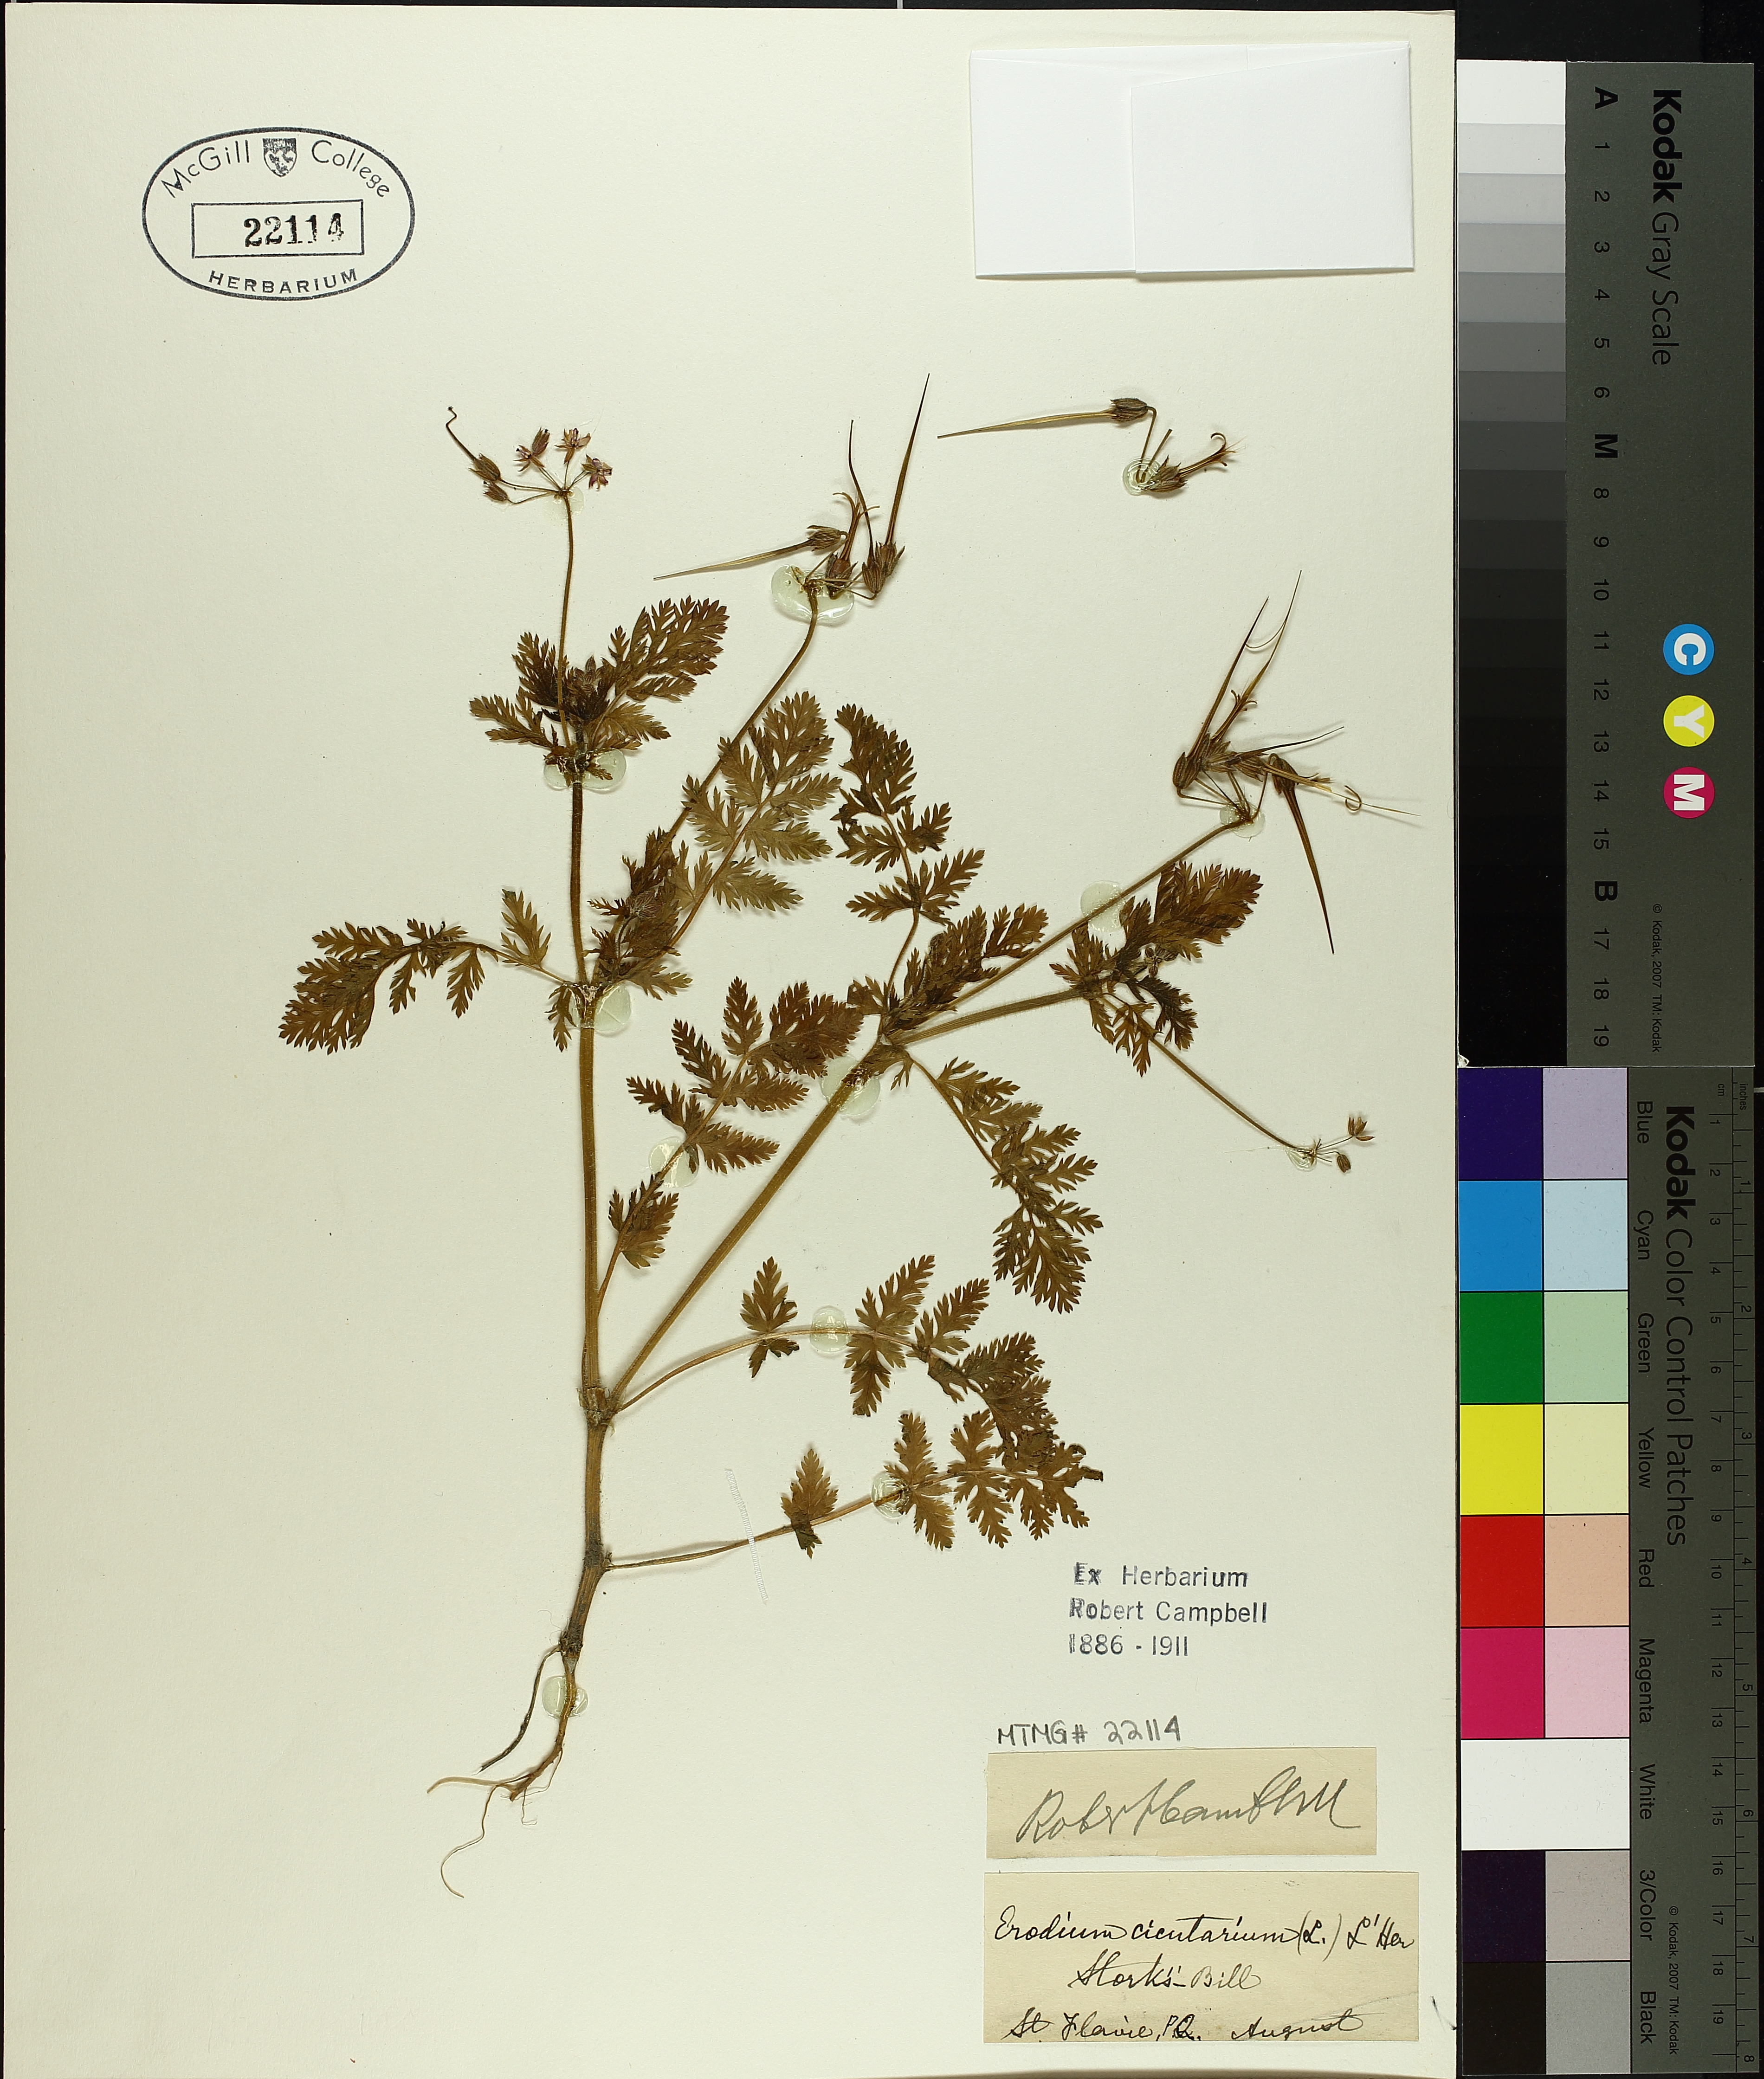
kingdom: Plantae
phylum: Tracheophyta
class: Magnoliopsida
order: Geraniales
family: Geraniaceae
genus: Erodium
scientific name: Erodium cicutarium
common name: Common stork's-bill
